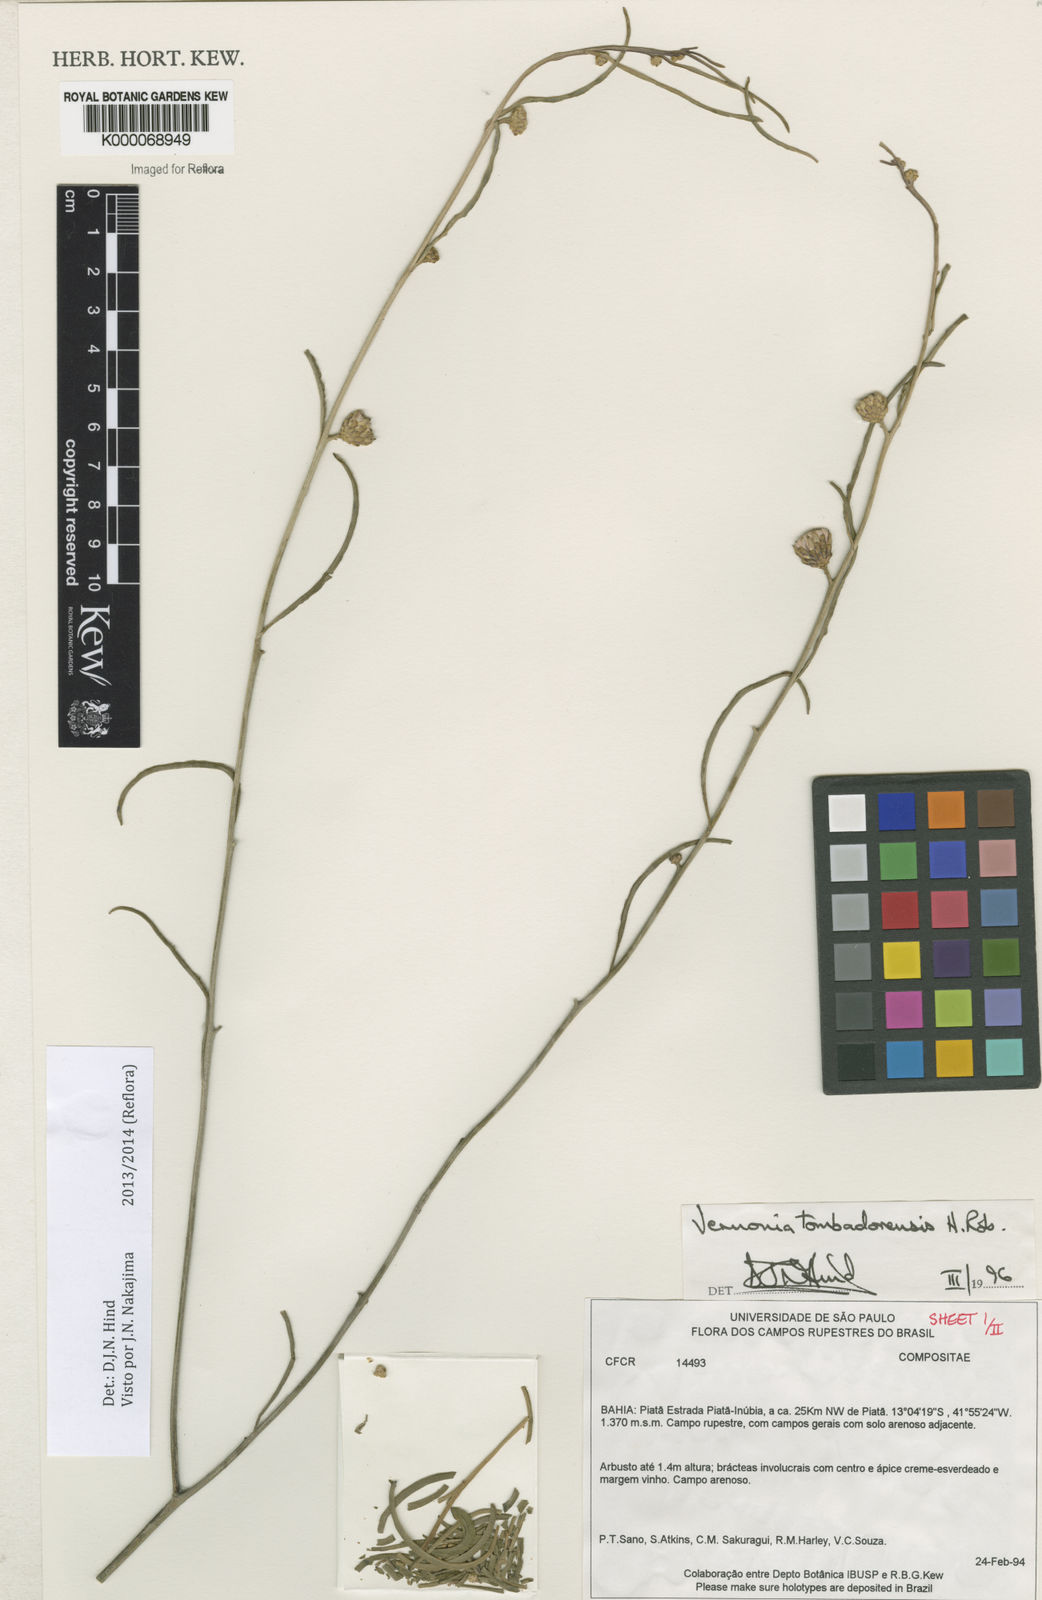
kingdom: Plantae
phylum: Tracheophyta
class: Magnoliopsida
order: Asterales
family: Asteraceae
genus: Lepidaploa
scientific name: Lepidaploa tombadorensis
